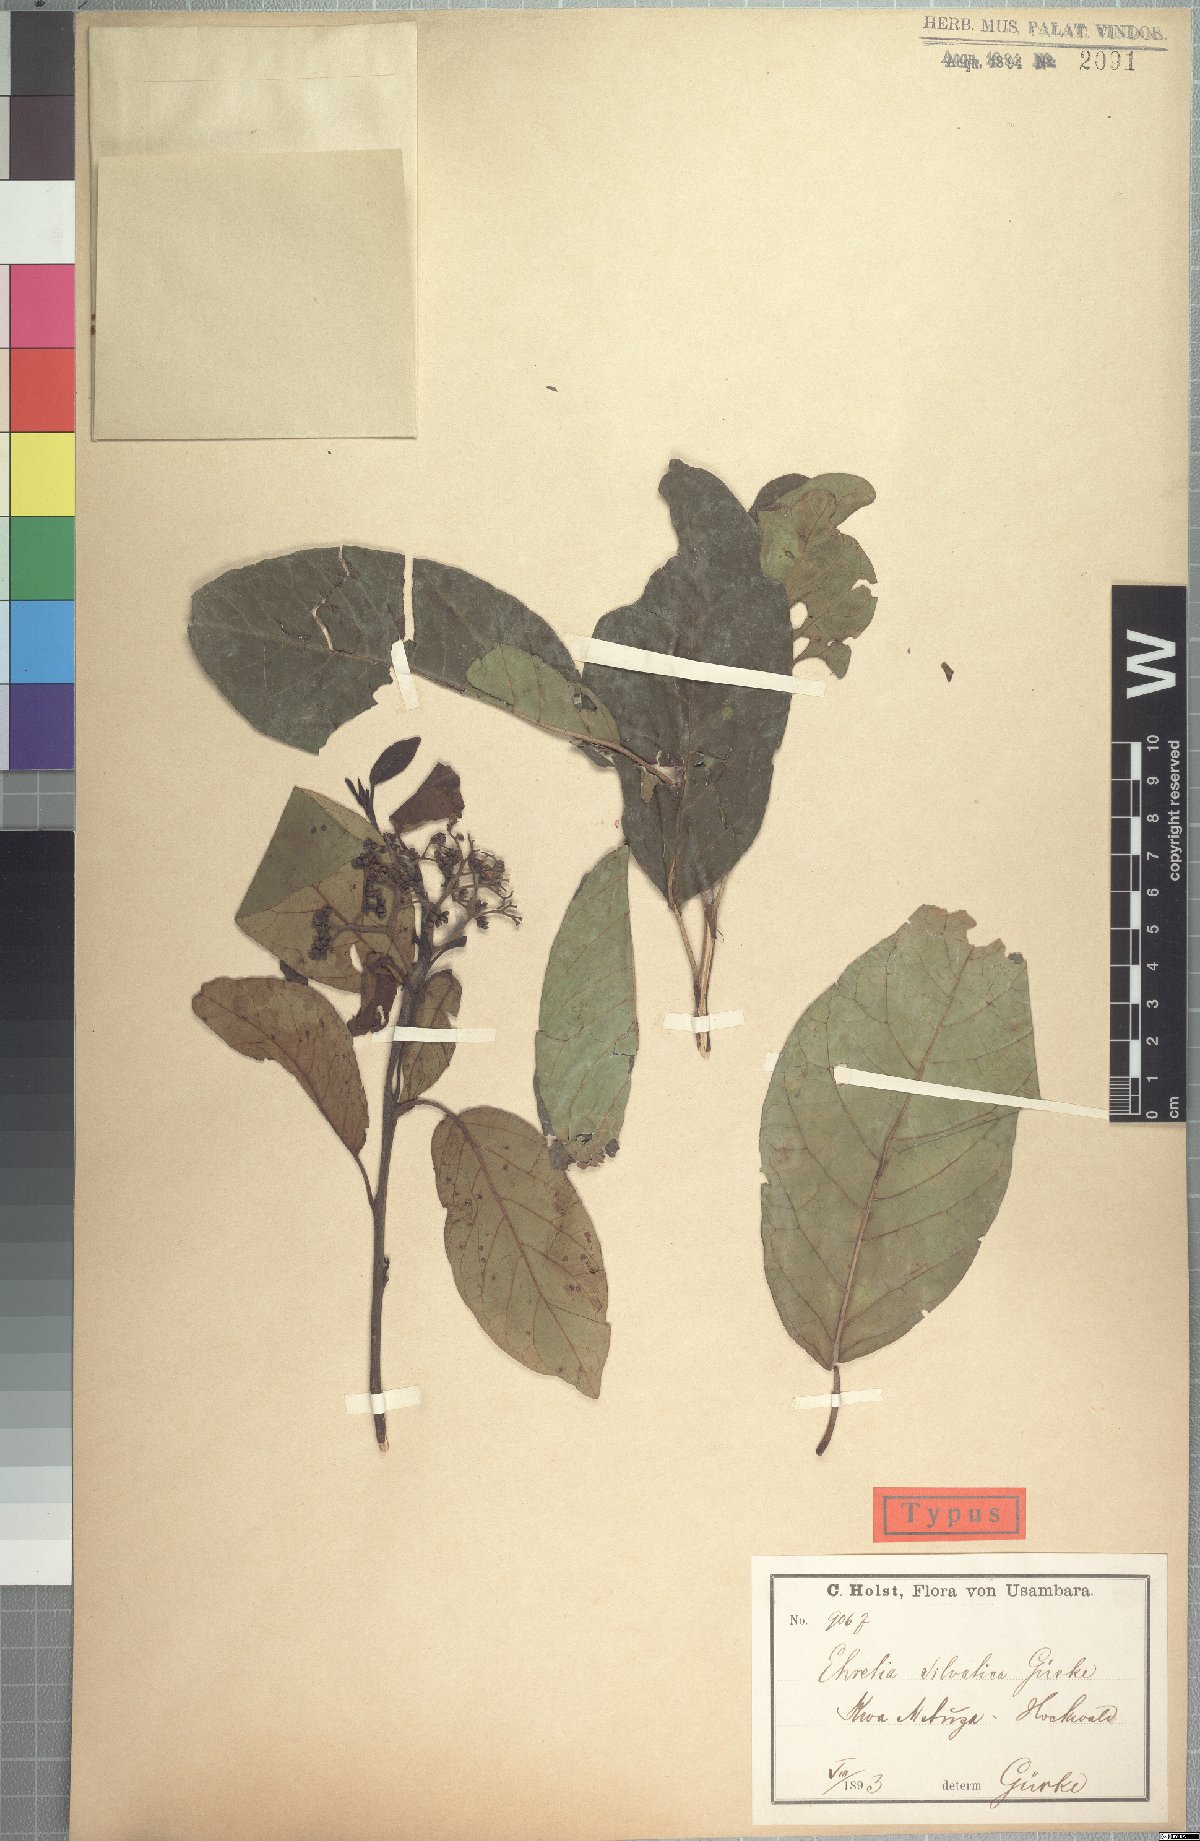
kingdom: Plantae
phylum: Tracheophyta
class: Magnoliopsida
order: Boraginales
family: Ehretiaceae
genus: Ehretia
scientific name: Ehretia cymosa
